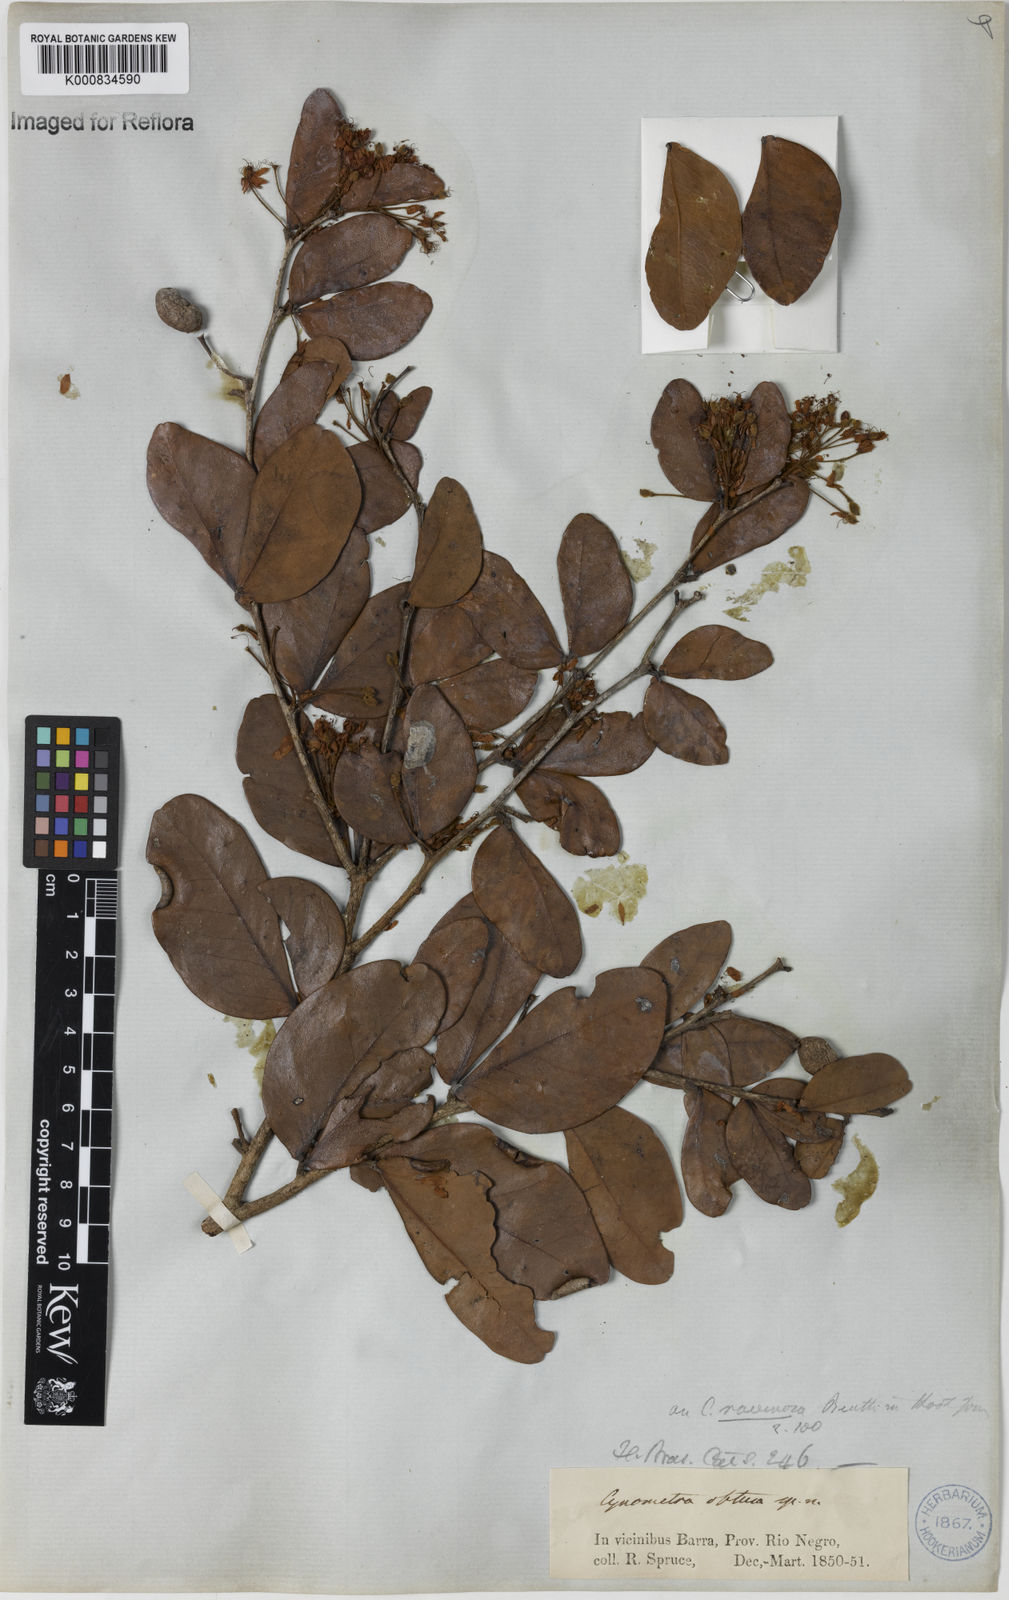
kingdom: Plantae
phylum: Tracheophyta
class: Magnoliopsida
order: Fabales
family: Fabaceae
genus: Cynometra
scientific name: Cynometra phaselocarpa
